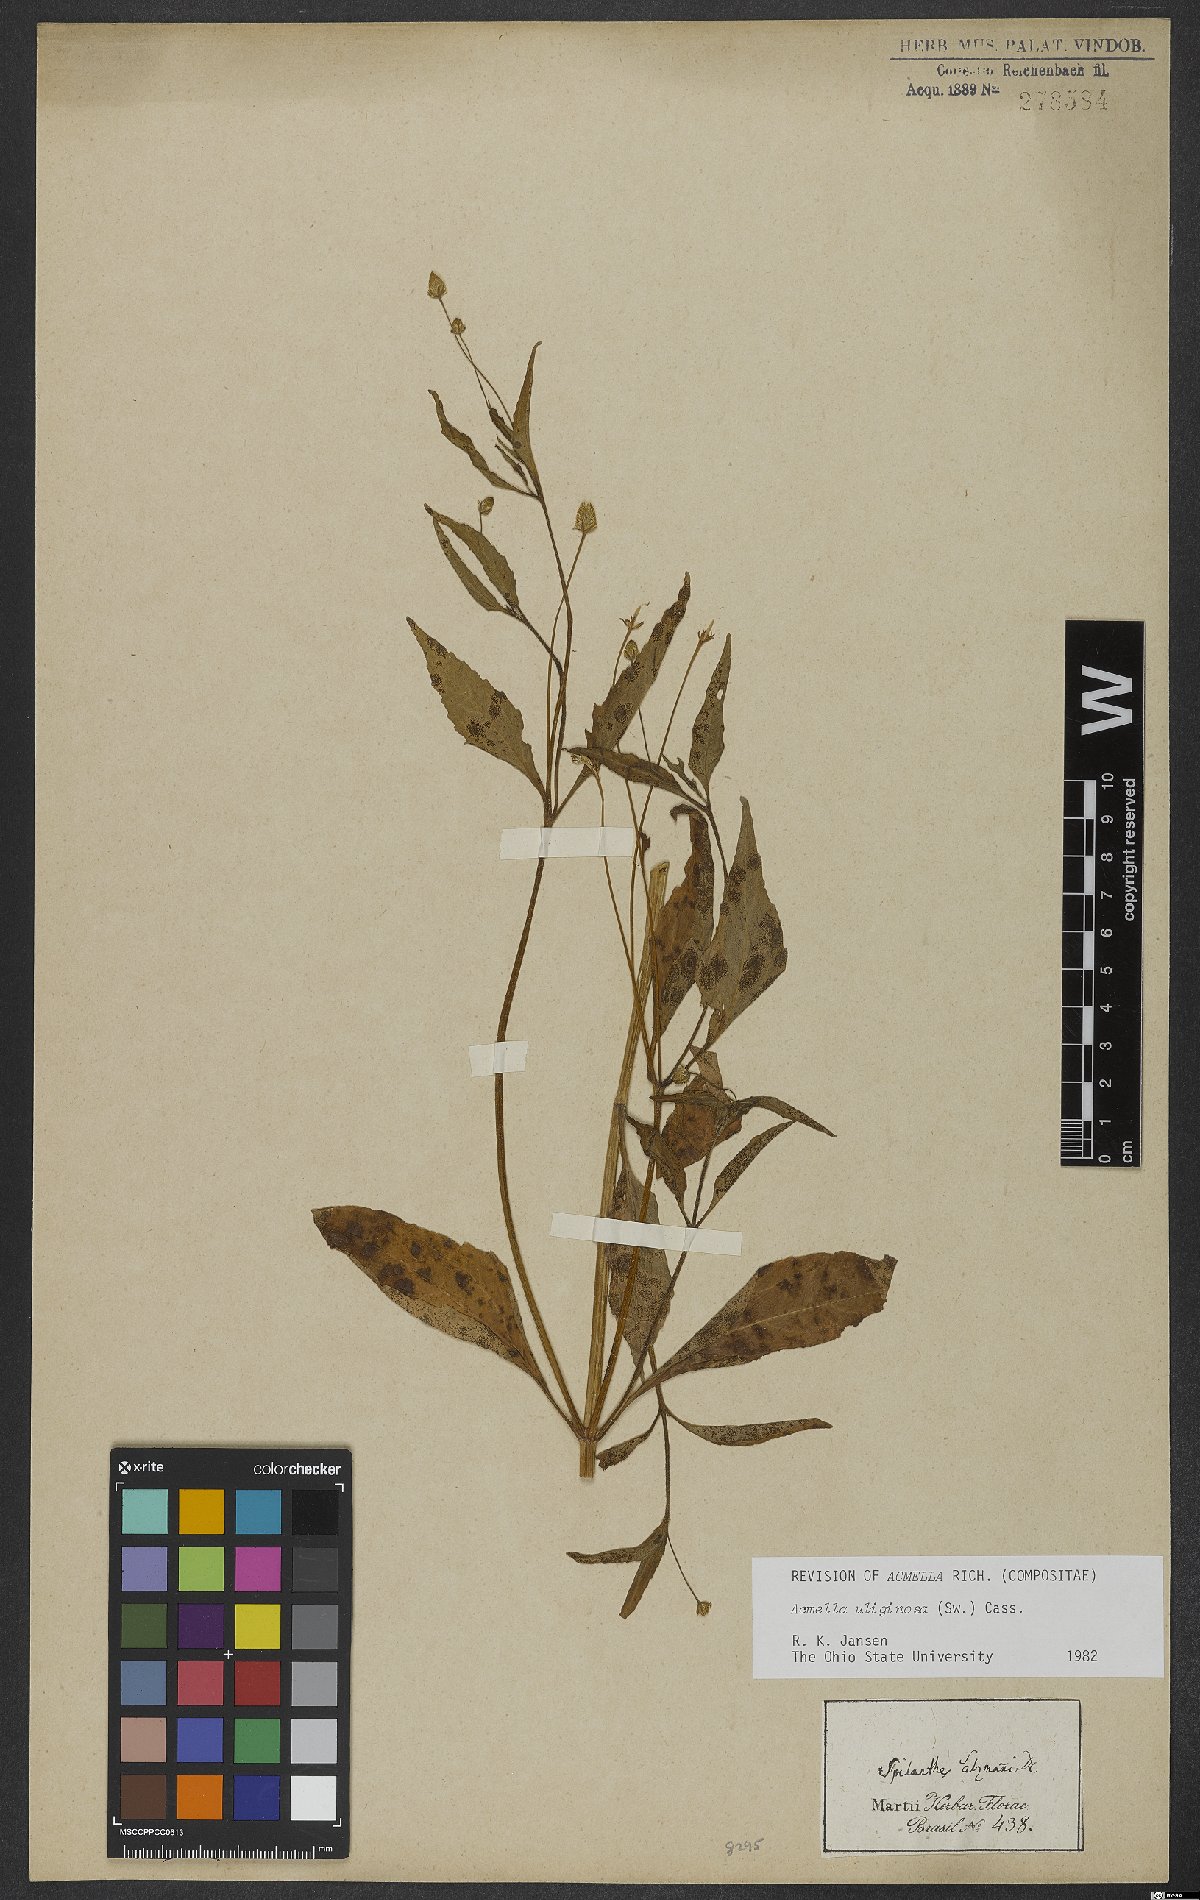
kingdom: Plantae
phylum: Tracheophyta
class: Magnoliopsida
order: Asterales
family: Asteraceae
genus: Acmella
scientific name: Acmella uliginosa
